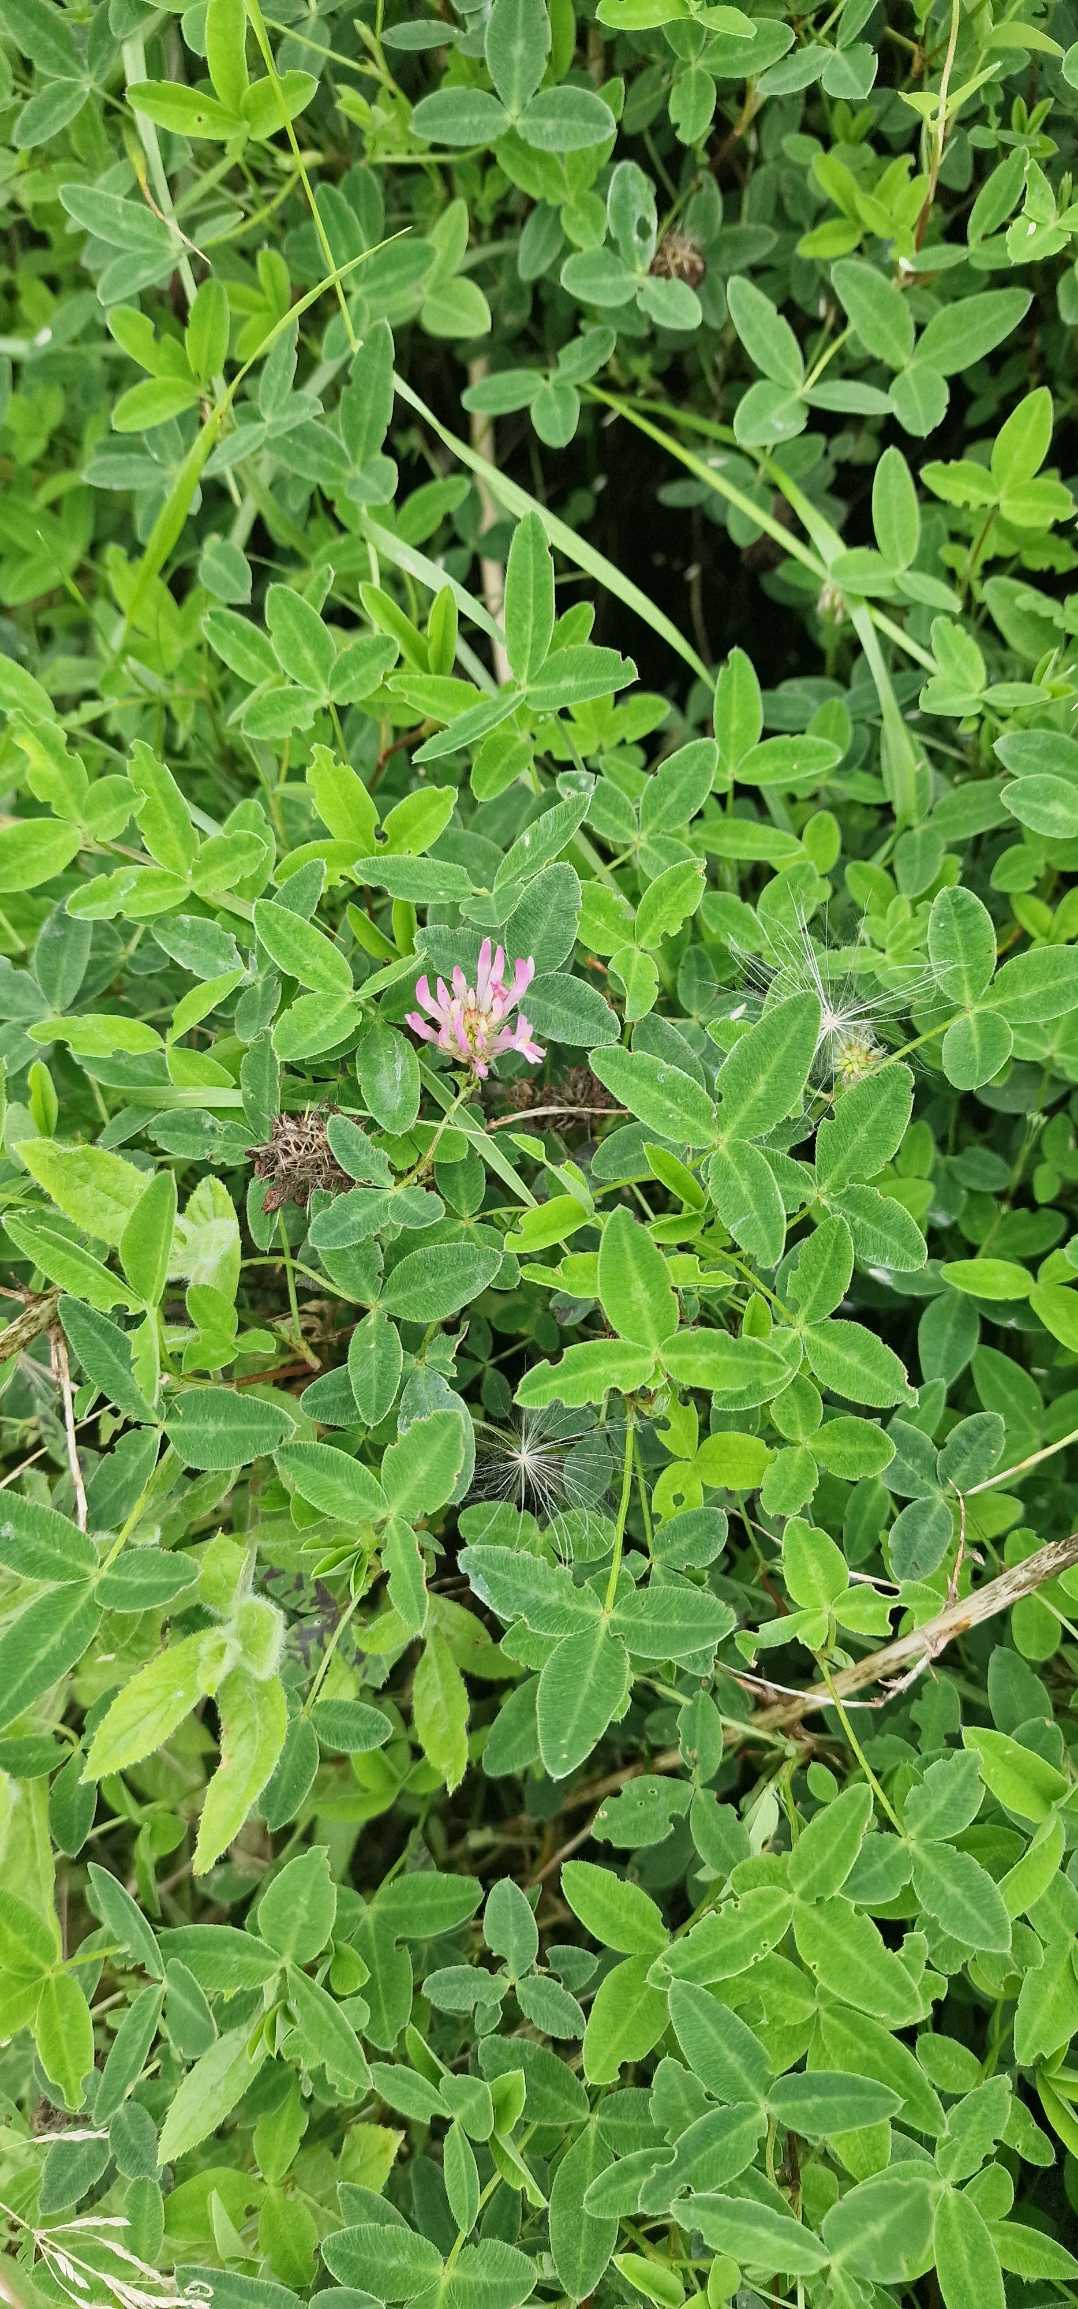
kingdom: Plantae
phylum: Tracheophyta
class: Magnoliopsida
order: Fabales
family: Fabaceae
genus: Trifolium
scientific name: Trifolium medium
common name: Bugtet kløver
